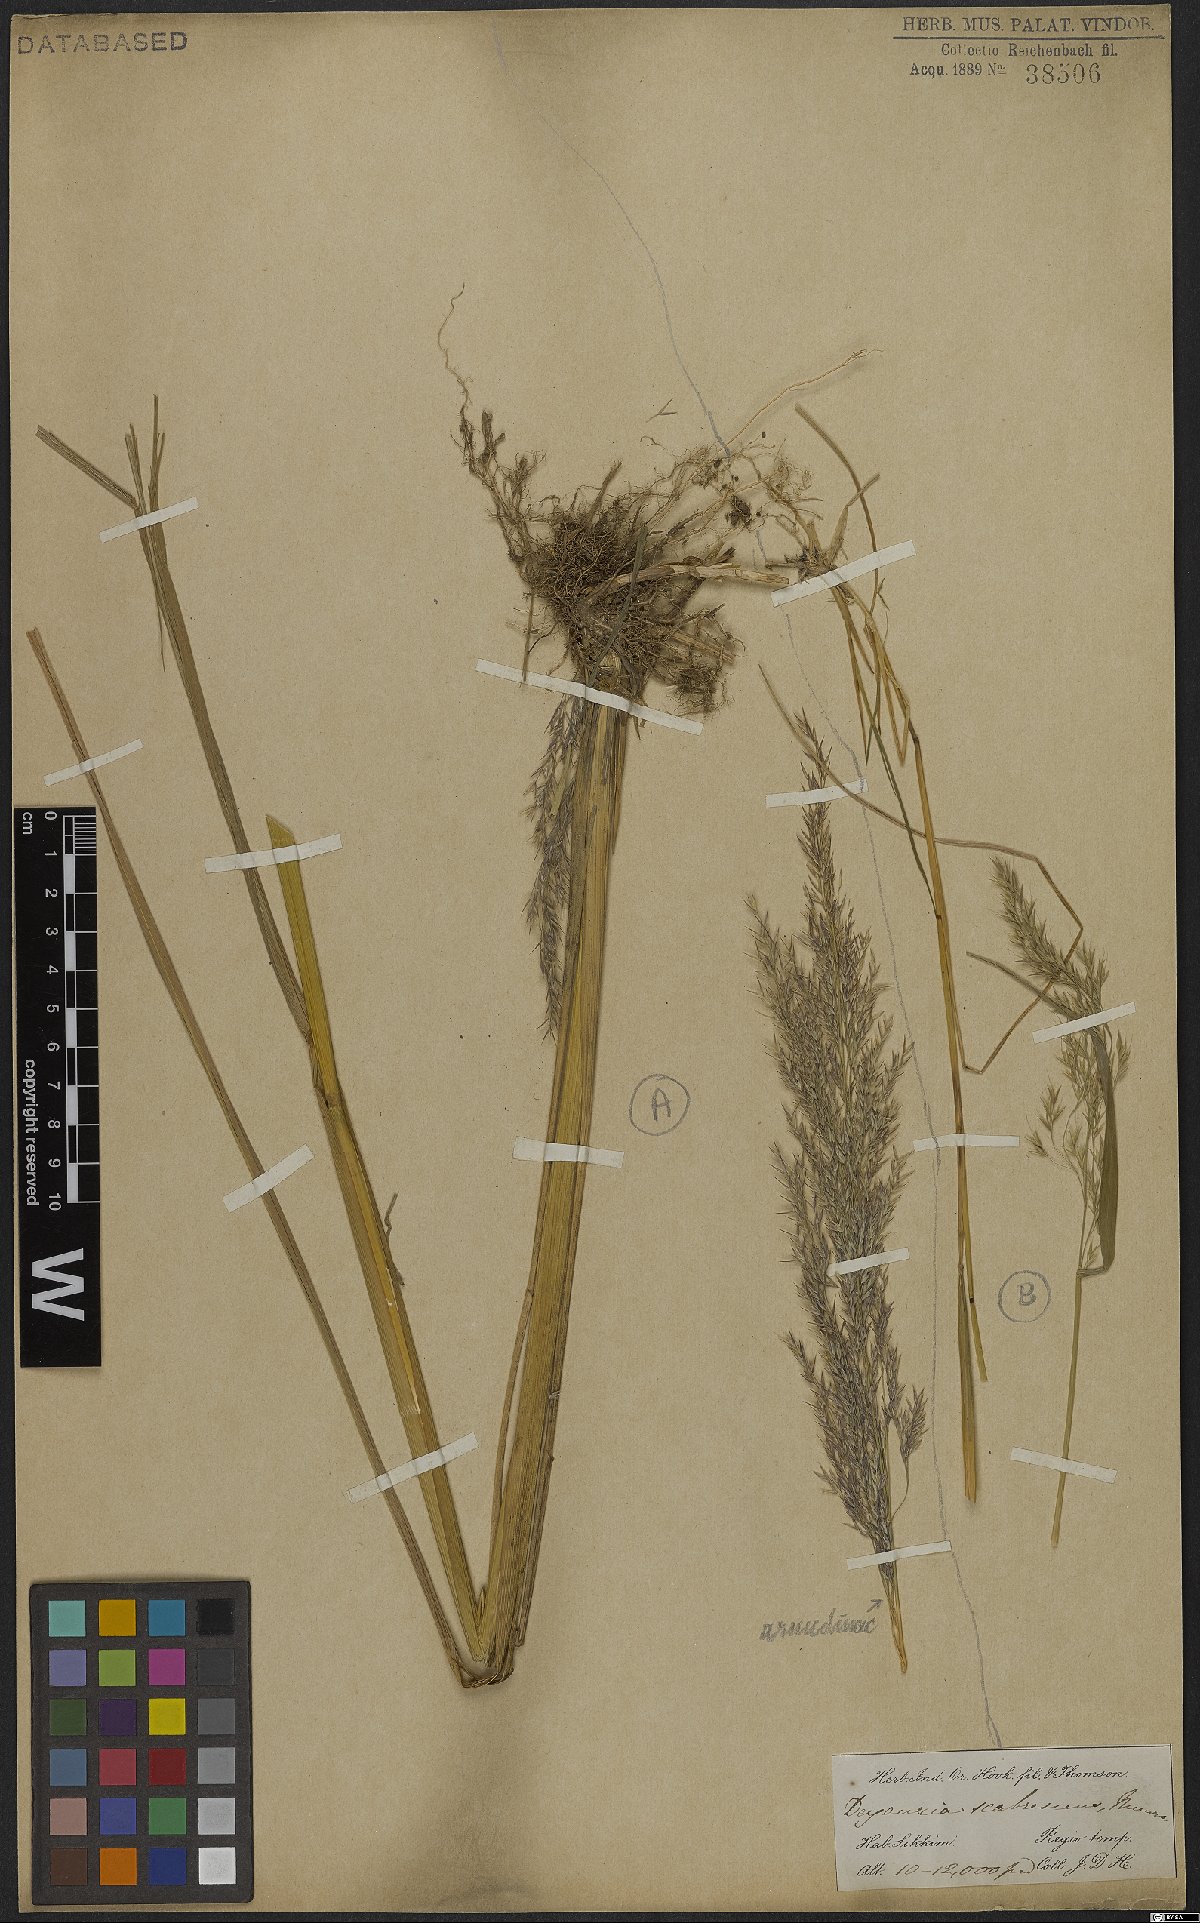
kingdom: Plantae
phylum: Tracheophyta
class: Liliopsida
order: Poales
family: Poaceae
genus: Calamagrostis
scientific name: Calamagrostis elatior
